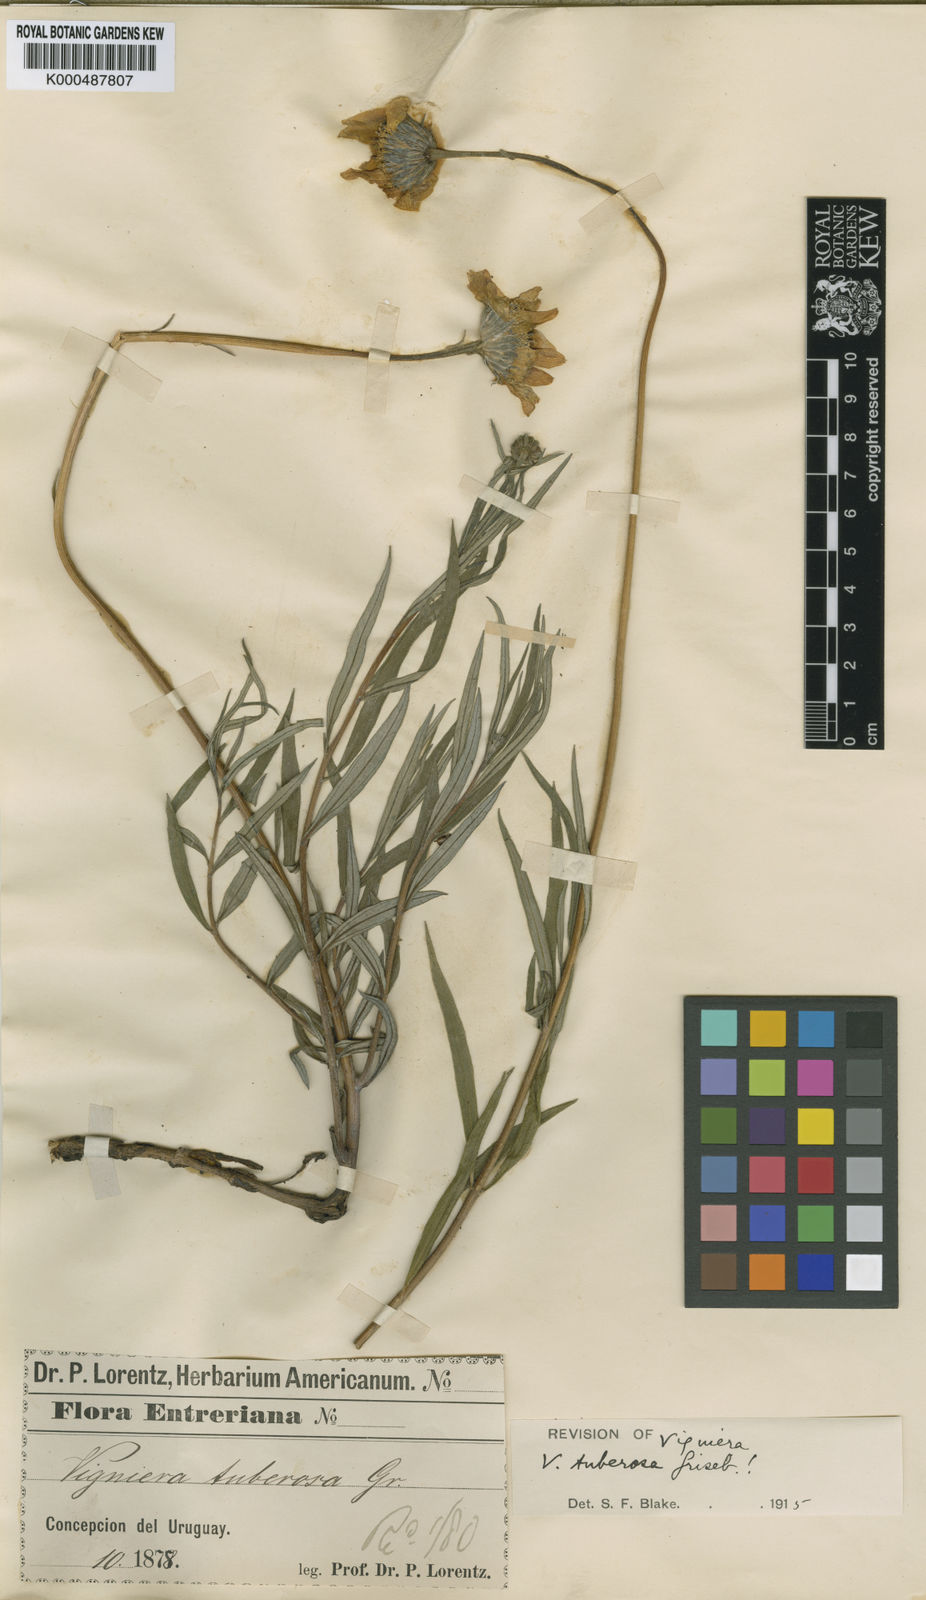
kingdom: Plantae
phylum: Tracheophyta
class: Magnoliopsida
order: Asterales
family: Asteraceae
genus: Aldama
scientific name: Aldama tuberosa
